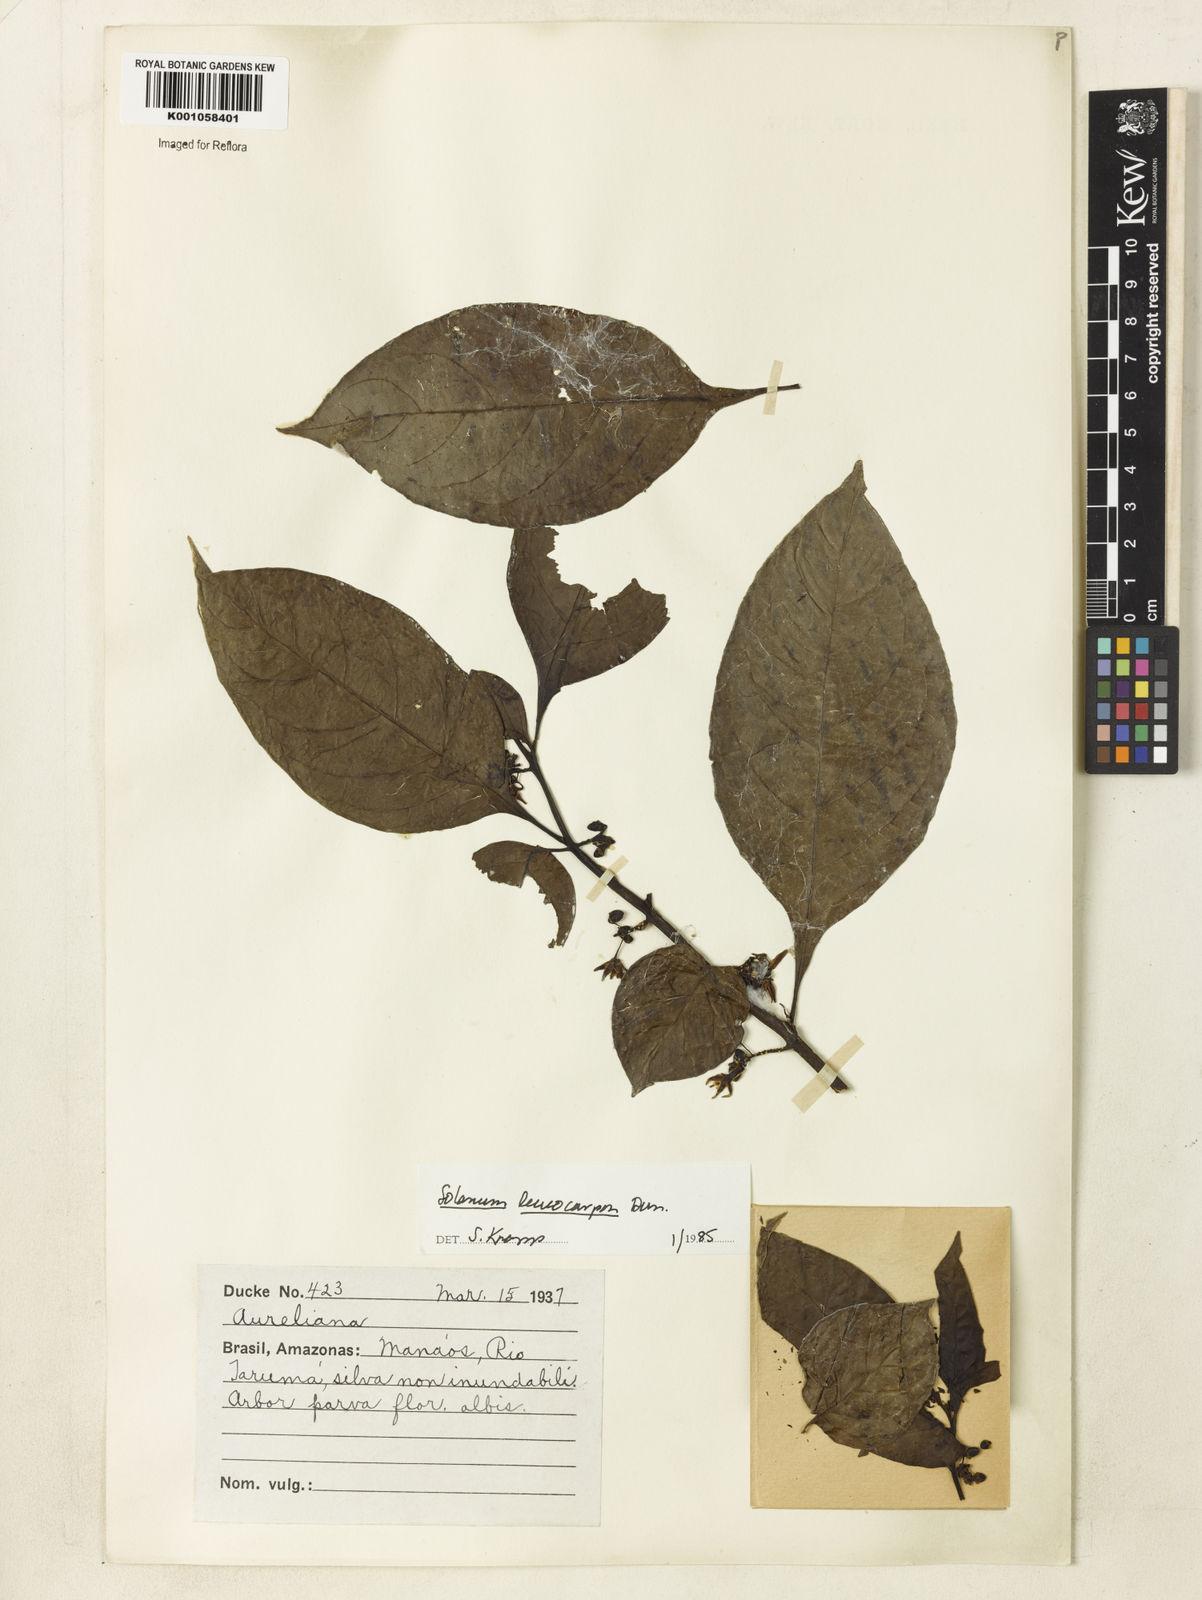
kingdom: Plantae
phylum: Tracheophyta
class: Magnoliopsida
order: Solanales
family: Solanaceae
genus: Solanum
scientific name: Solanum leucocarpon
